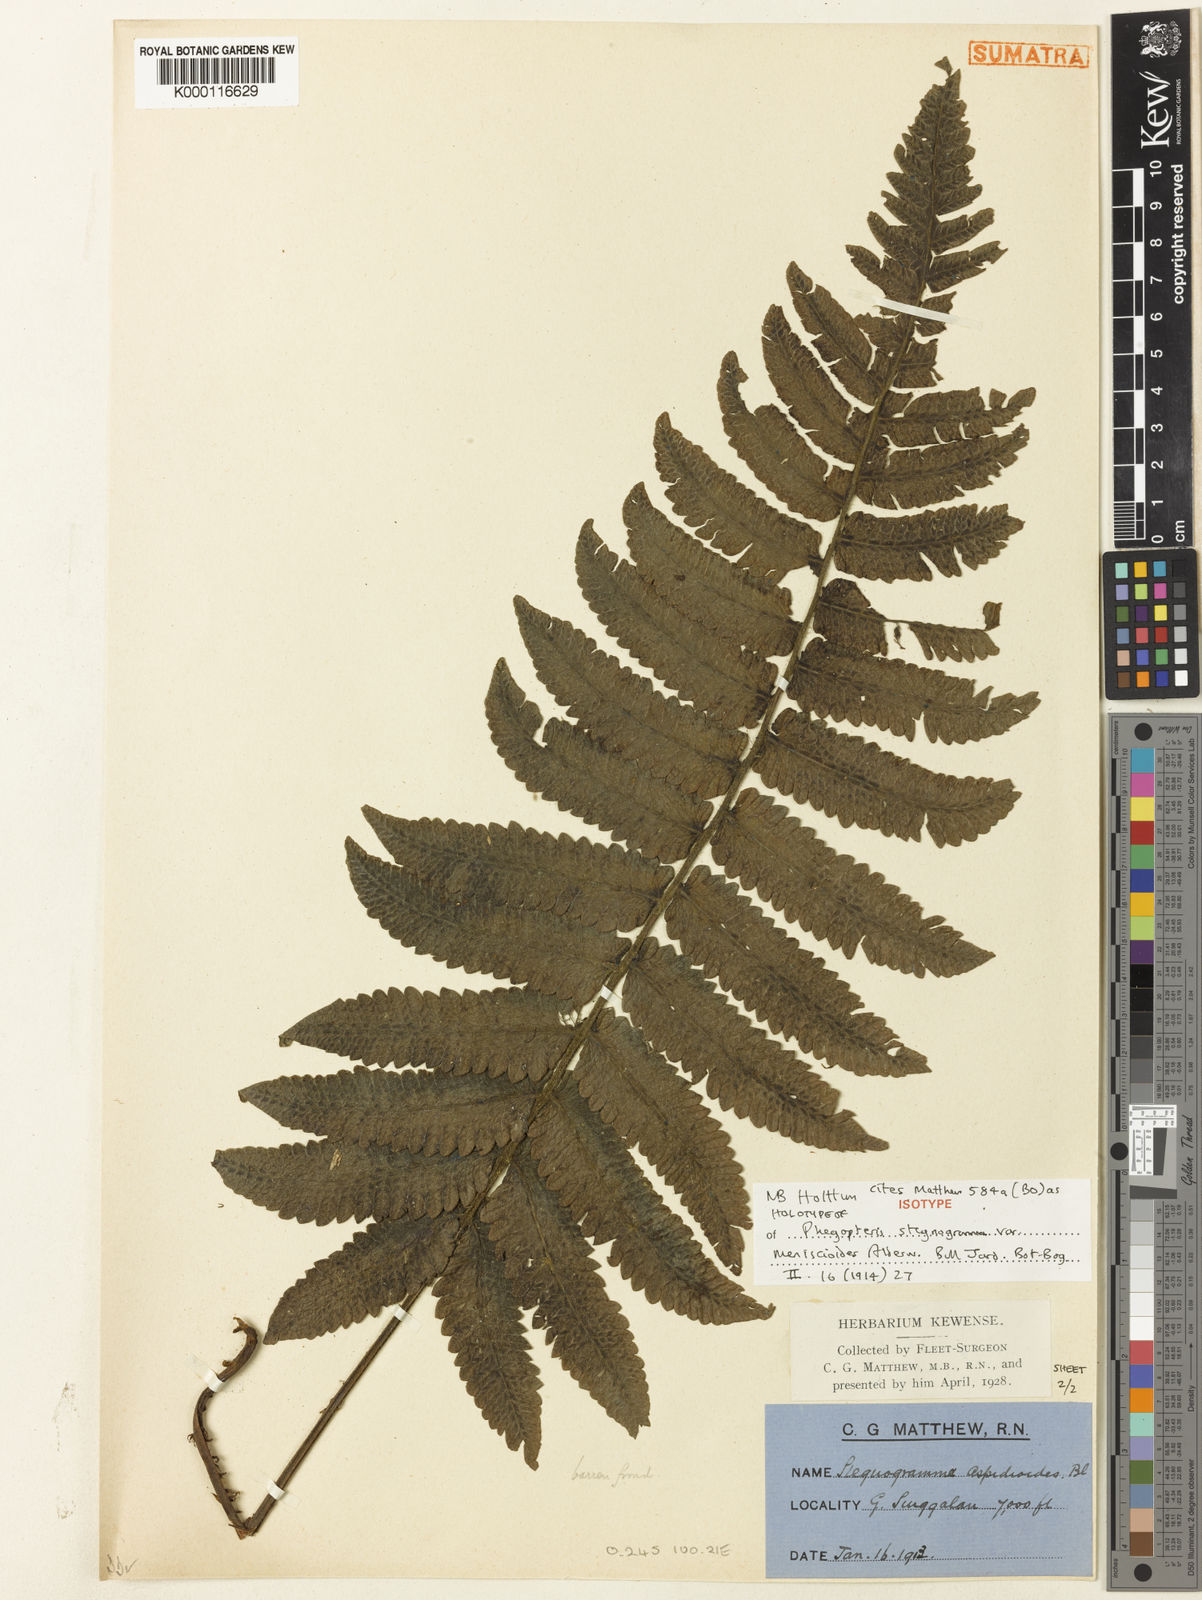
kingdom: Plantae
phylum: Tracheophyta
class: Polypodiopsida
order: Polypodiales
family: Thelypteridaceae
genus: Stegnogramma
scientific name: Stegnogramma aspidioides
